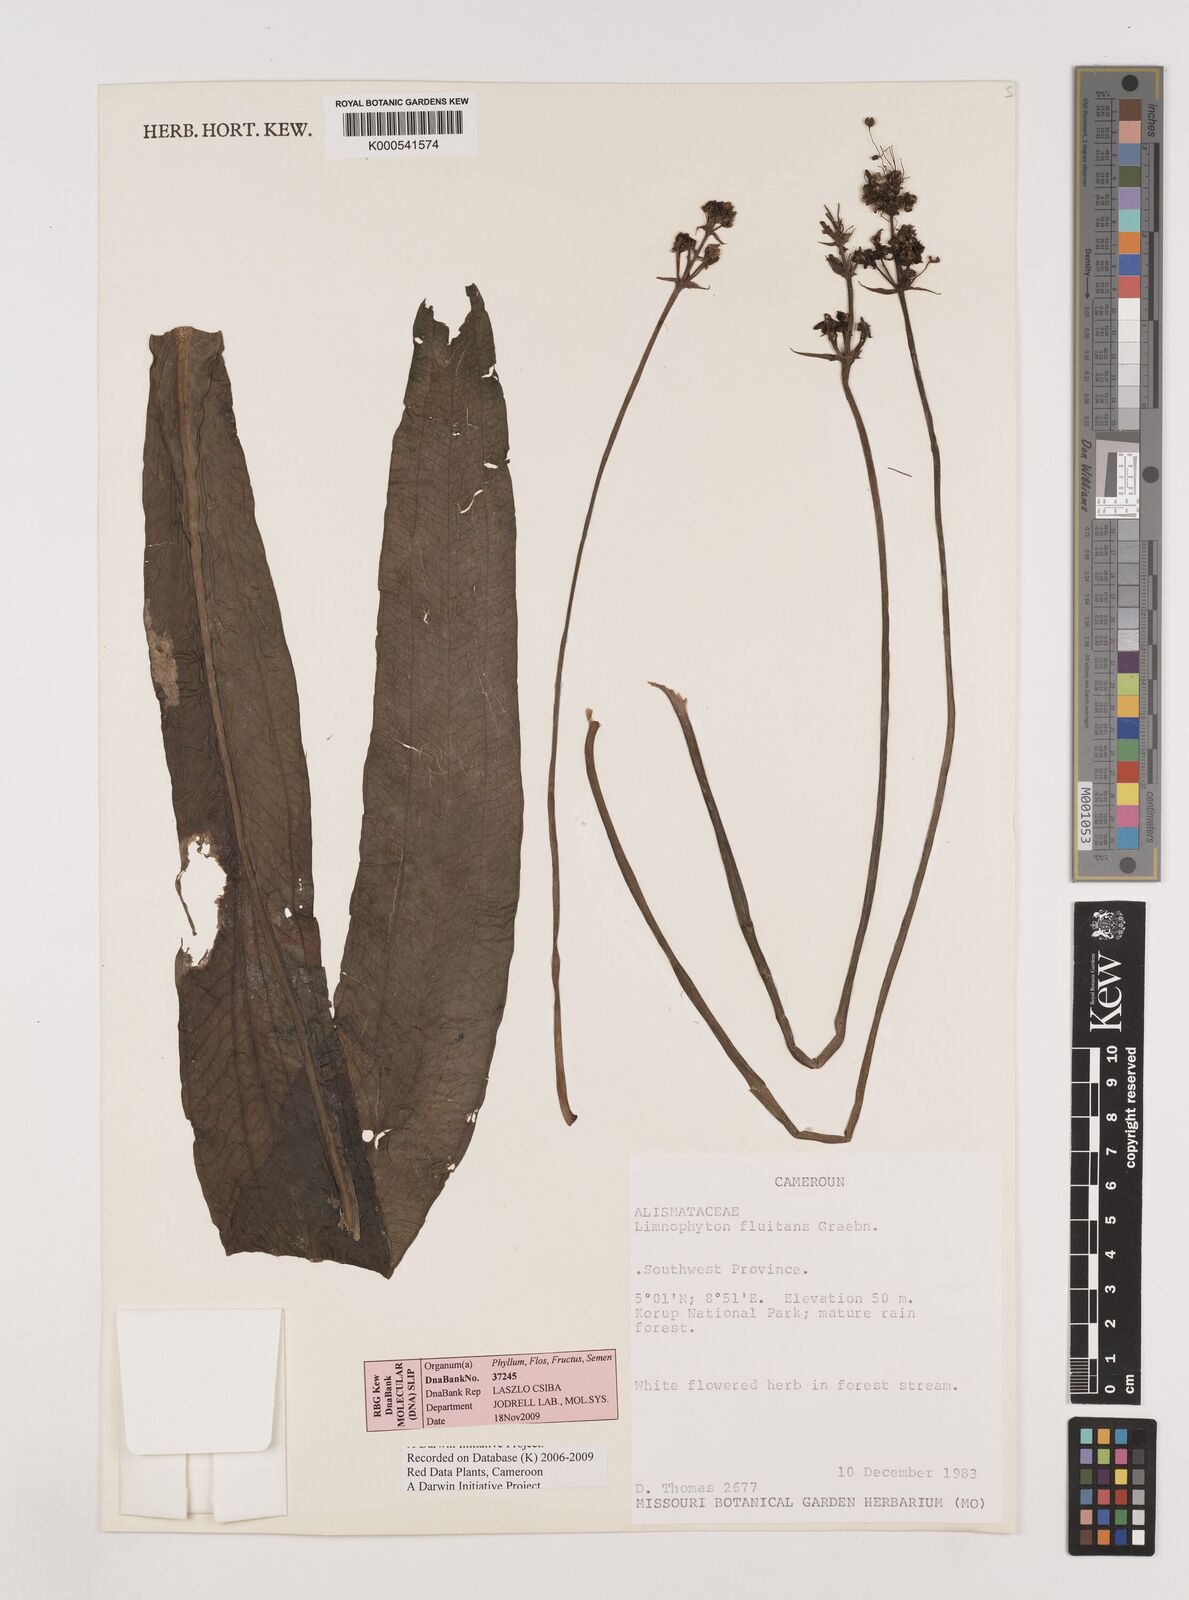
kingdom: Plantae
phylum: Tracheophyta
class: Liliopsida
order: Alismatales
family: Alismataceae
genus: Limnophyton
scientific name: Limnophyton fluitans
